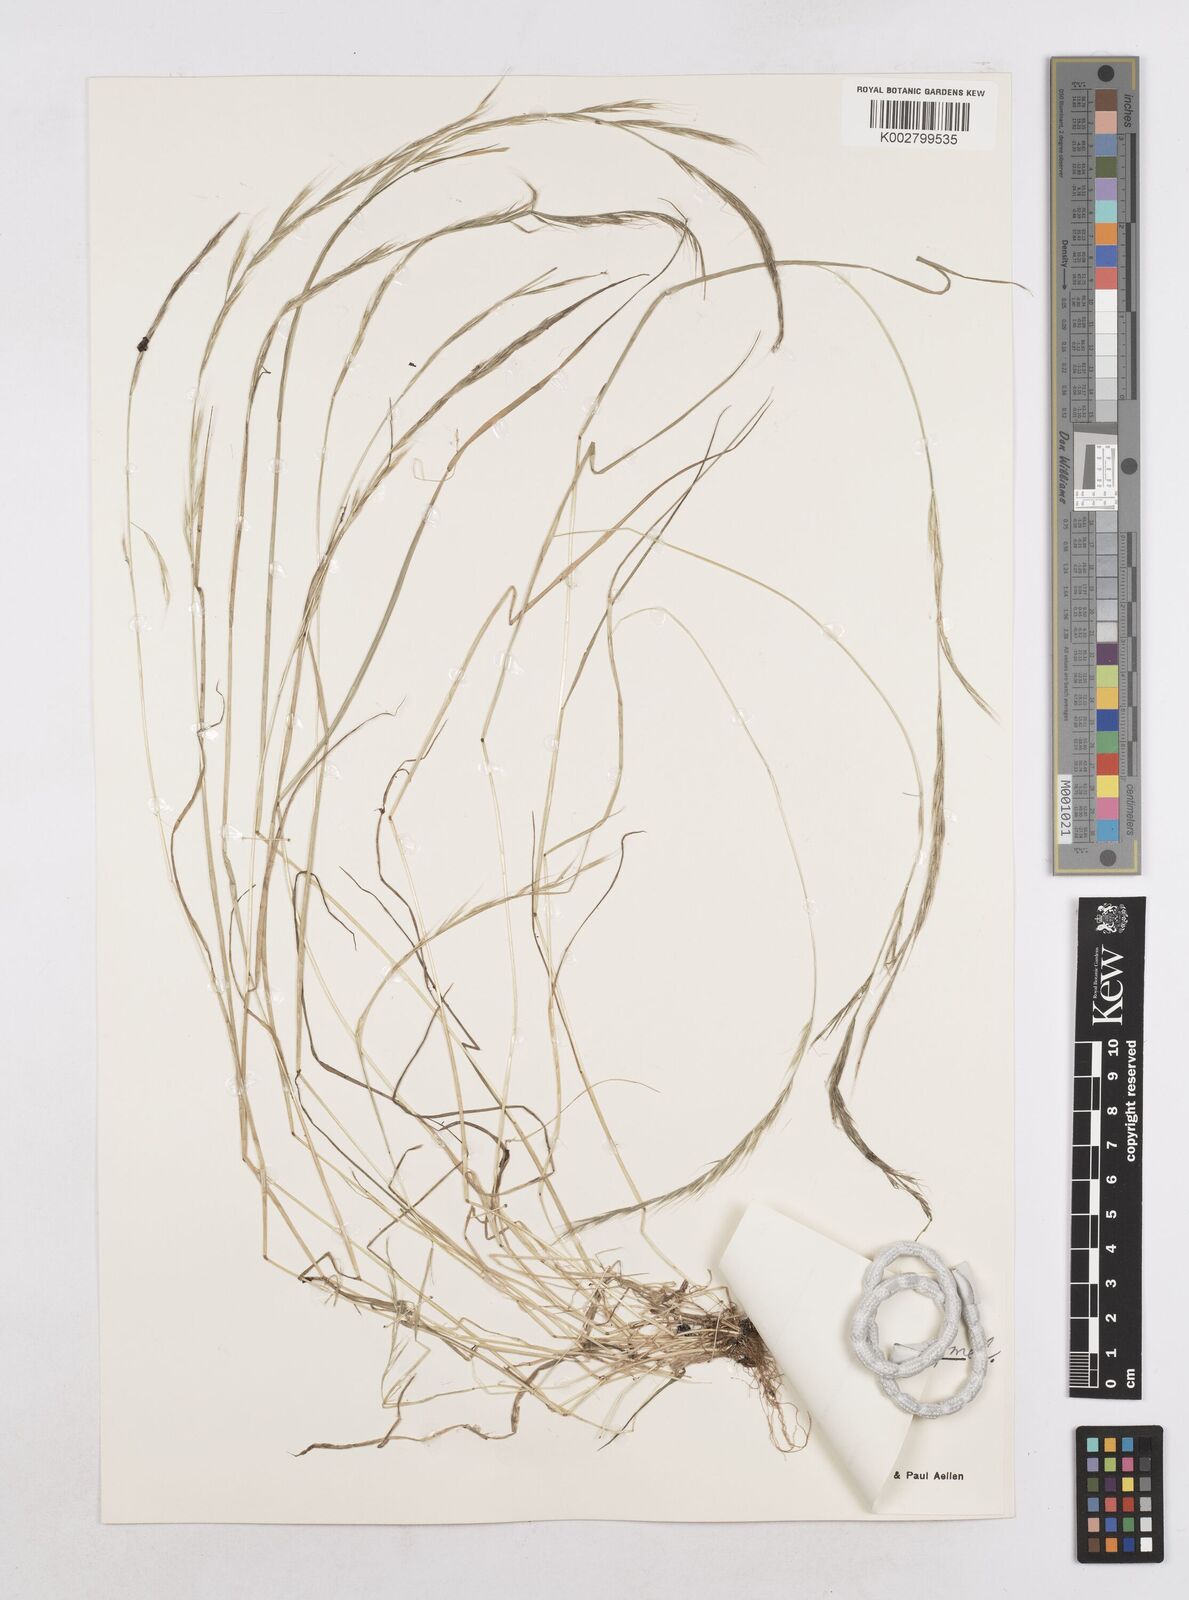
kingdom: Plantae
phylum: Tracheophyta
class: Liliopsida
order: Poales
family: Poaceae
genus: Festuca
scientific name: Festuca myuros
